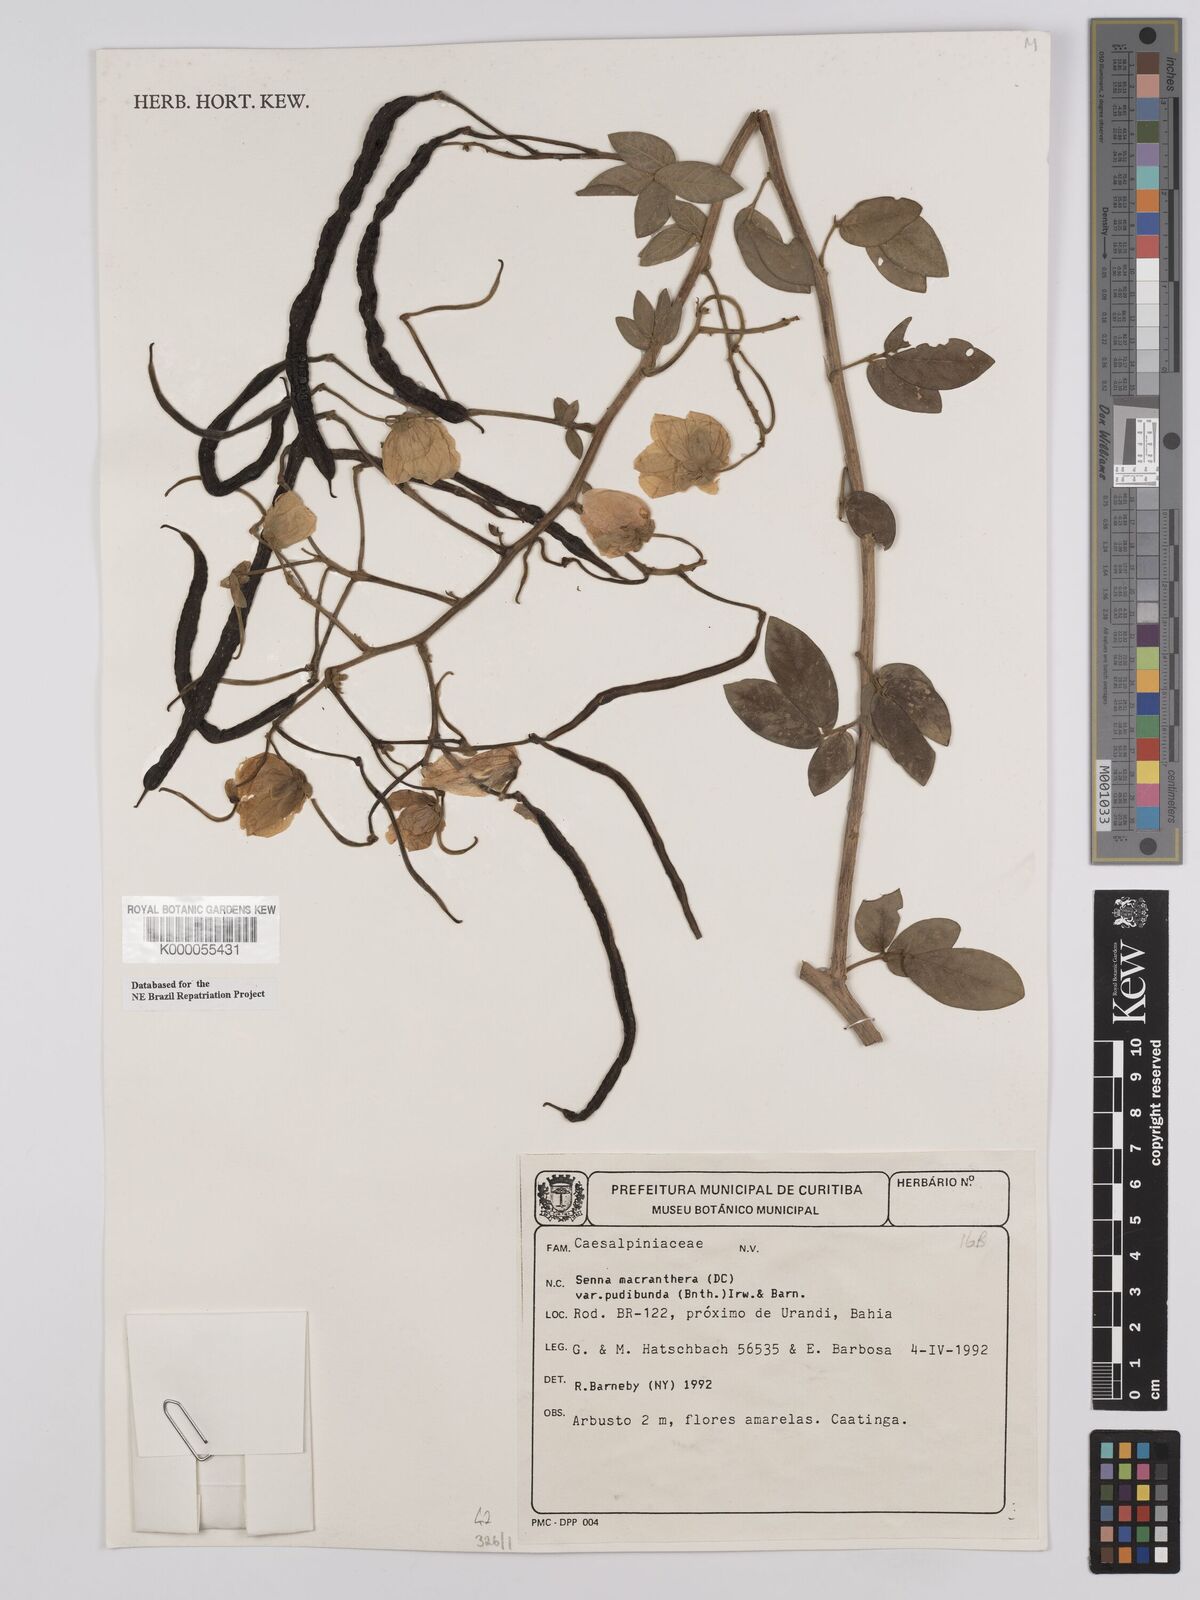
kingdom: Plantae
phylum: Tracheophyta
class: Magnoliopsida
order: Fabales
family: Fabaceae
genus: Senna
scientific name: Senna macranthera
